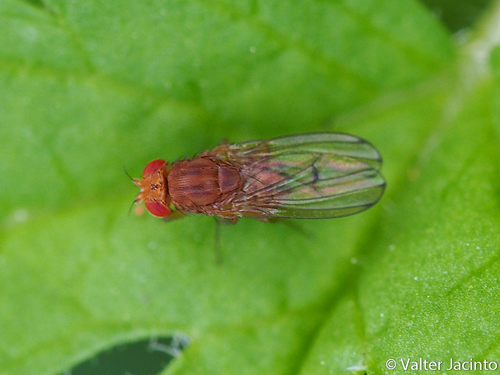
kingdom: Animalia
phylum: Arthropoda
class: Insecta
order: Diptera
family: Drosophilidae
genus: Drosophila
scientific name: Drosophila immigrans
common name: Pomace fly
